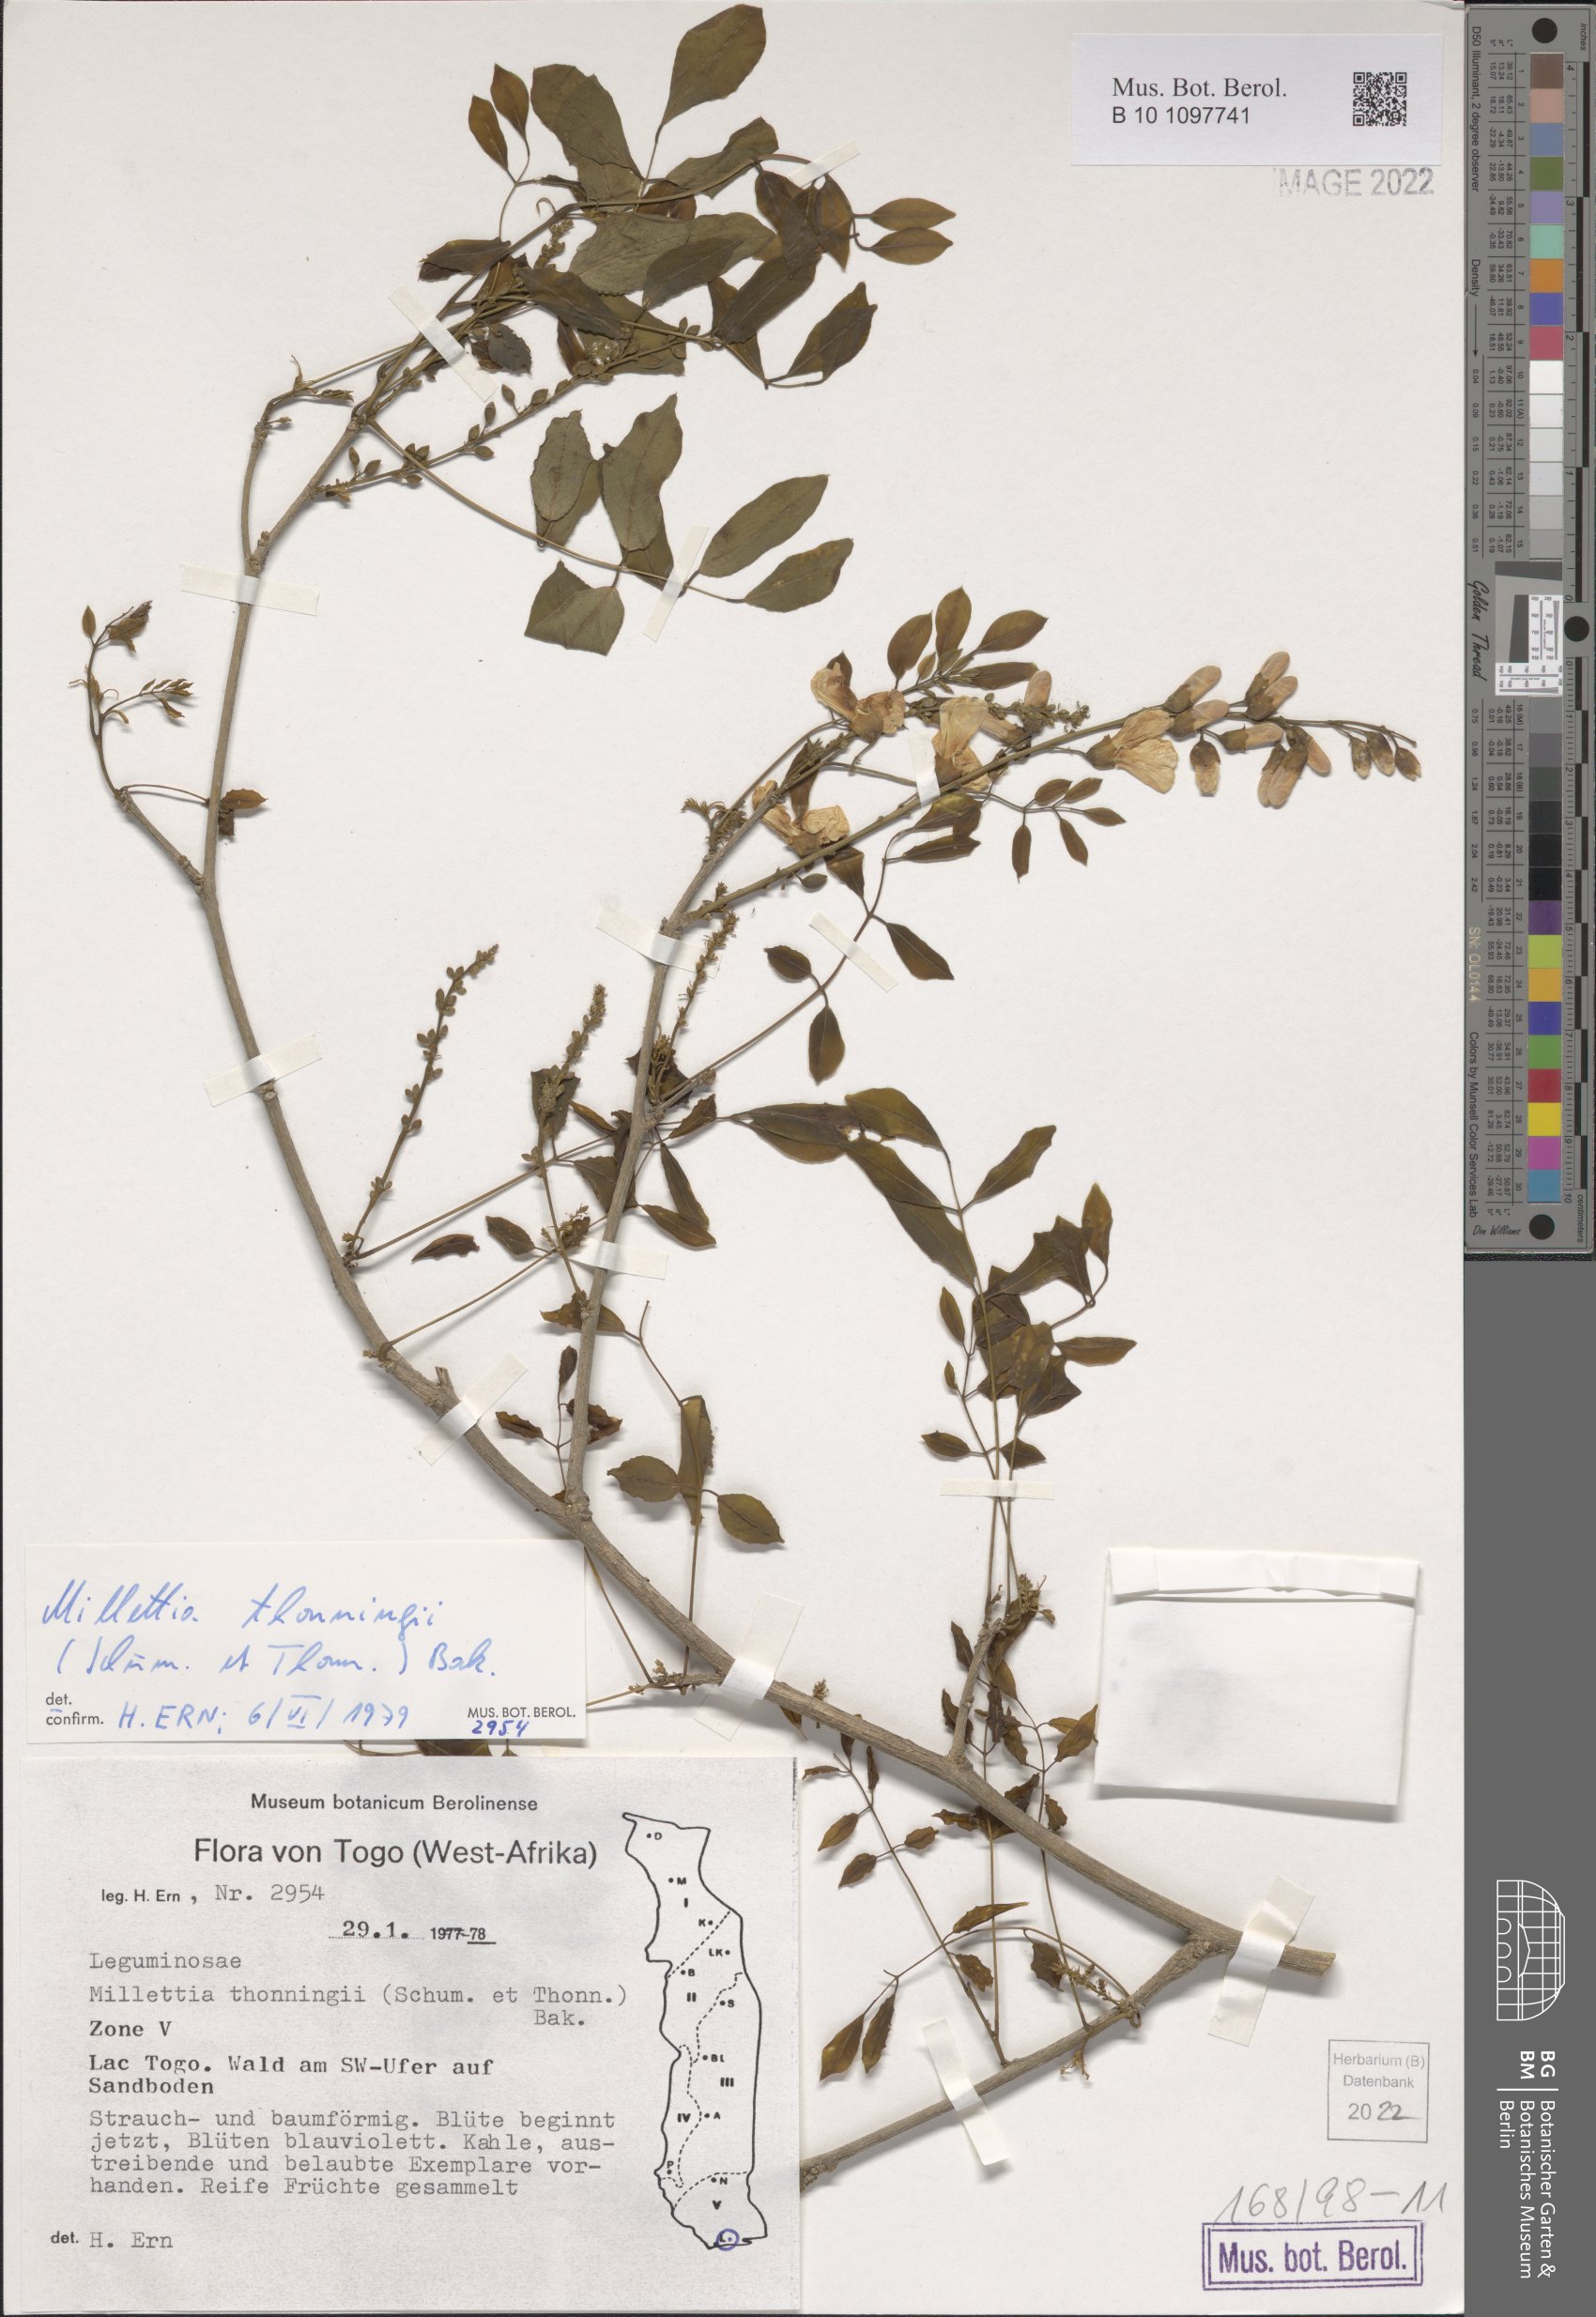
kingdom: Plantae
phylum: Tracheophyta
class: Magnoliopsida
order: Fabales
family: Fabaceae
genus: Millettia
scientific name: Millettia thonningii
